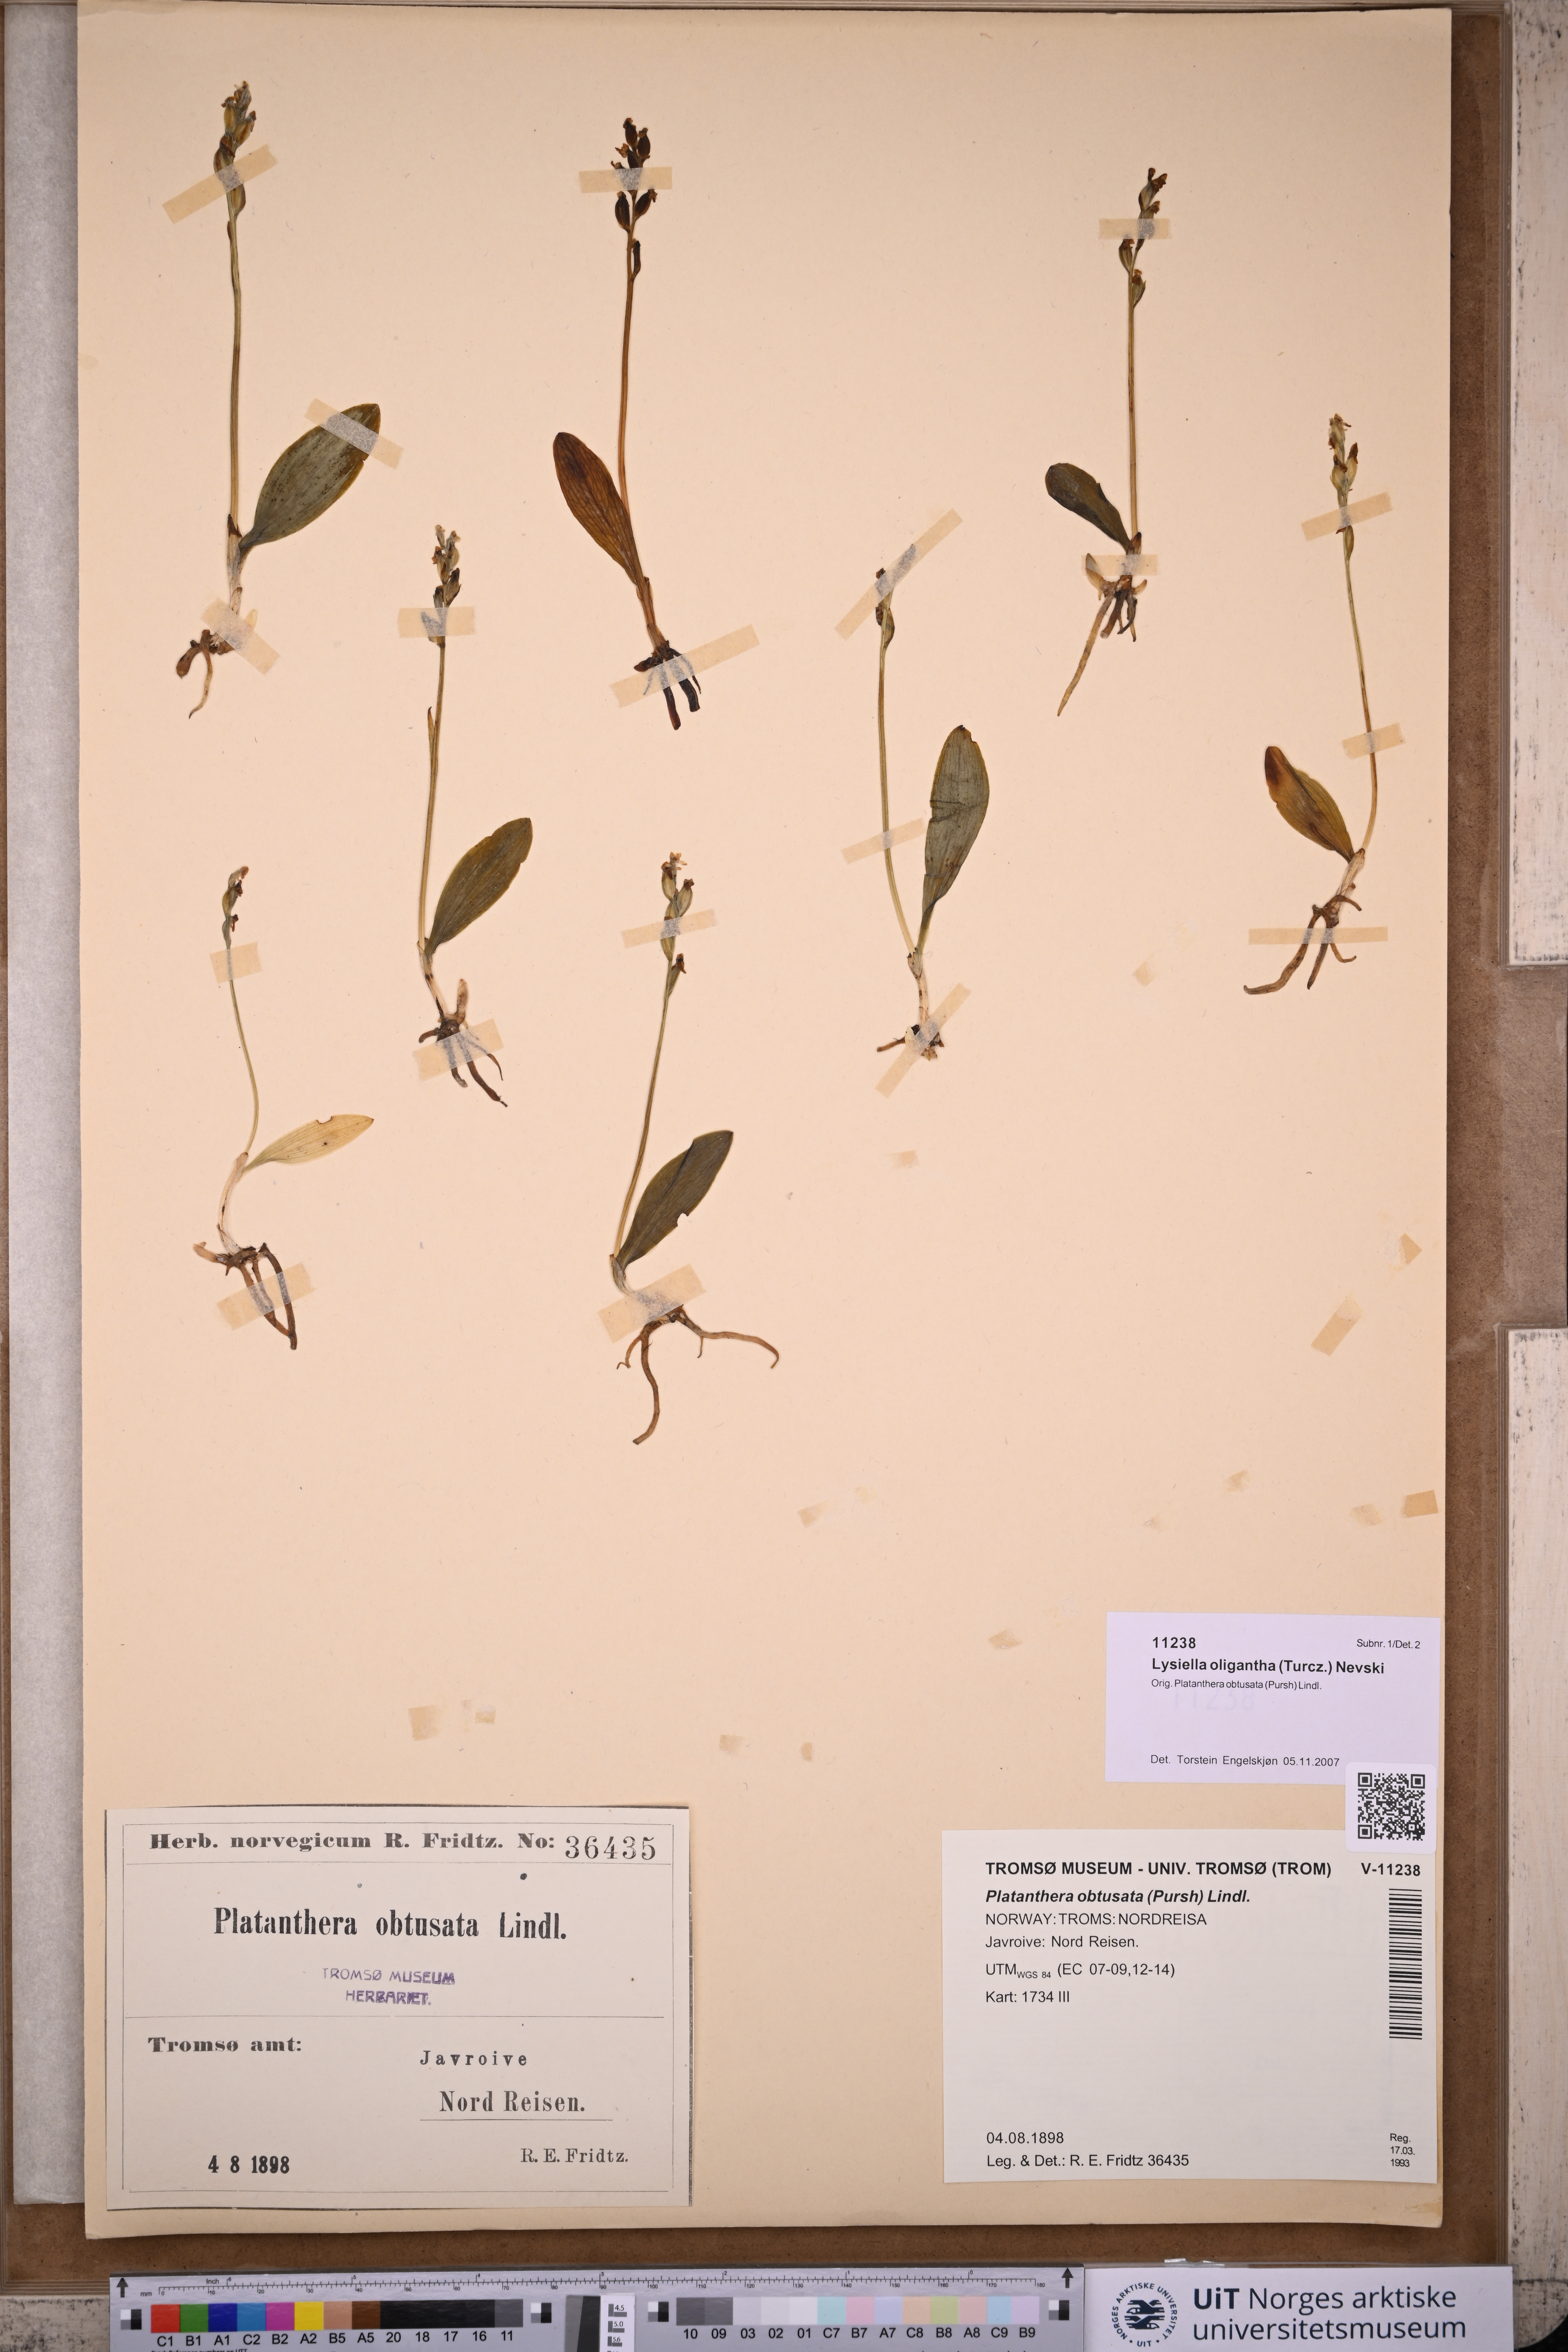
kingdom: Plantae
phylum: Tracheophyta
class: Liliopsida
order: Asparagales
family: Orchidaceae
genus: Platanthera
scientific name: Platanthera oligantha
